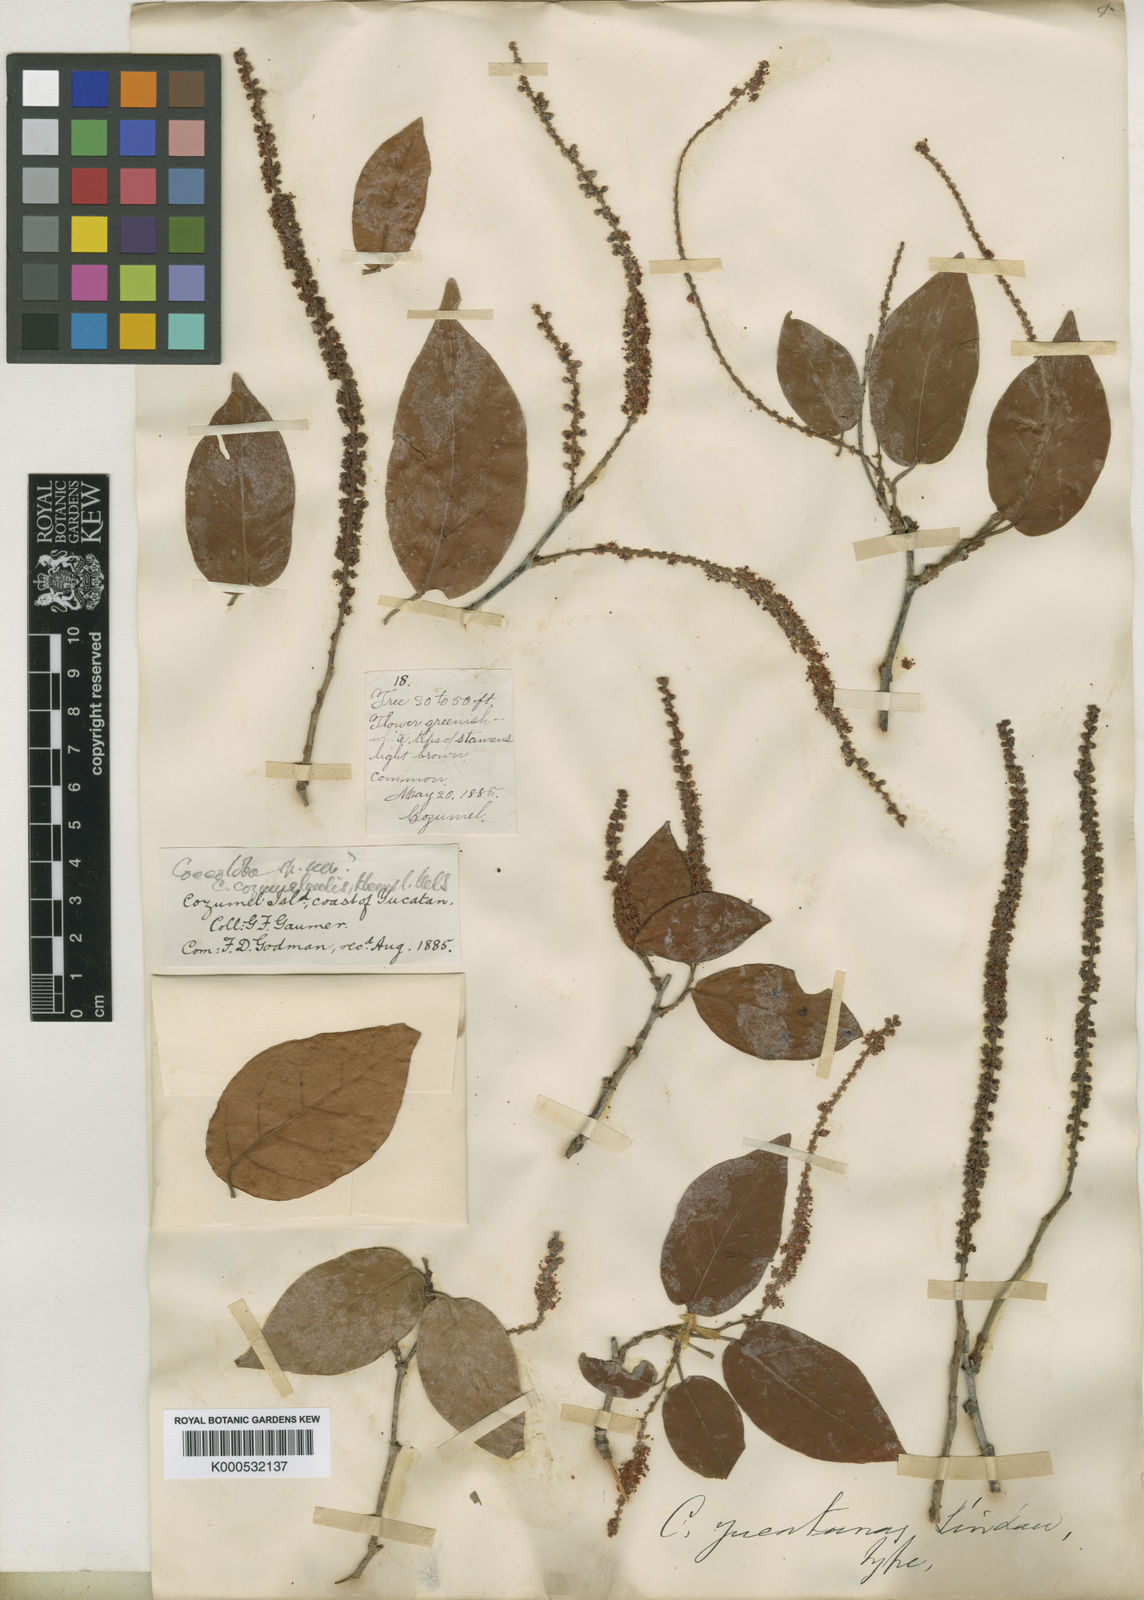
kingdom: Plantae
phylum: Tracheophyta
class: Magnoliopsida
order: Caryophyllales
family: Polygonaceae
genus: Coccoloba
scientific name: Coccoloba cozumelensis
